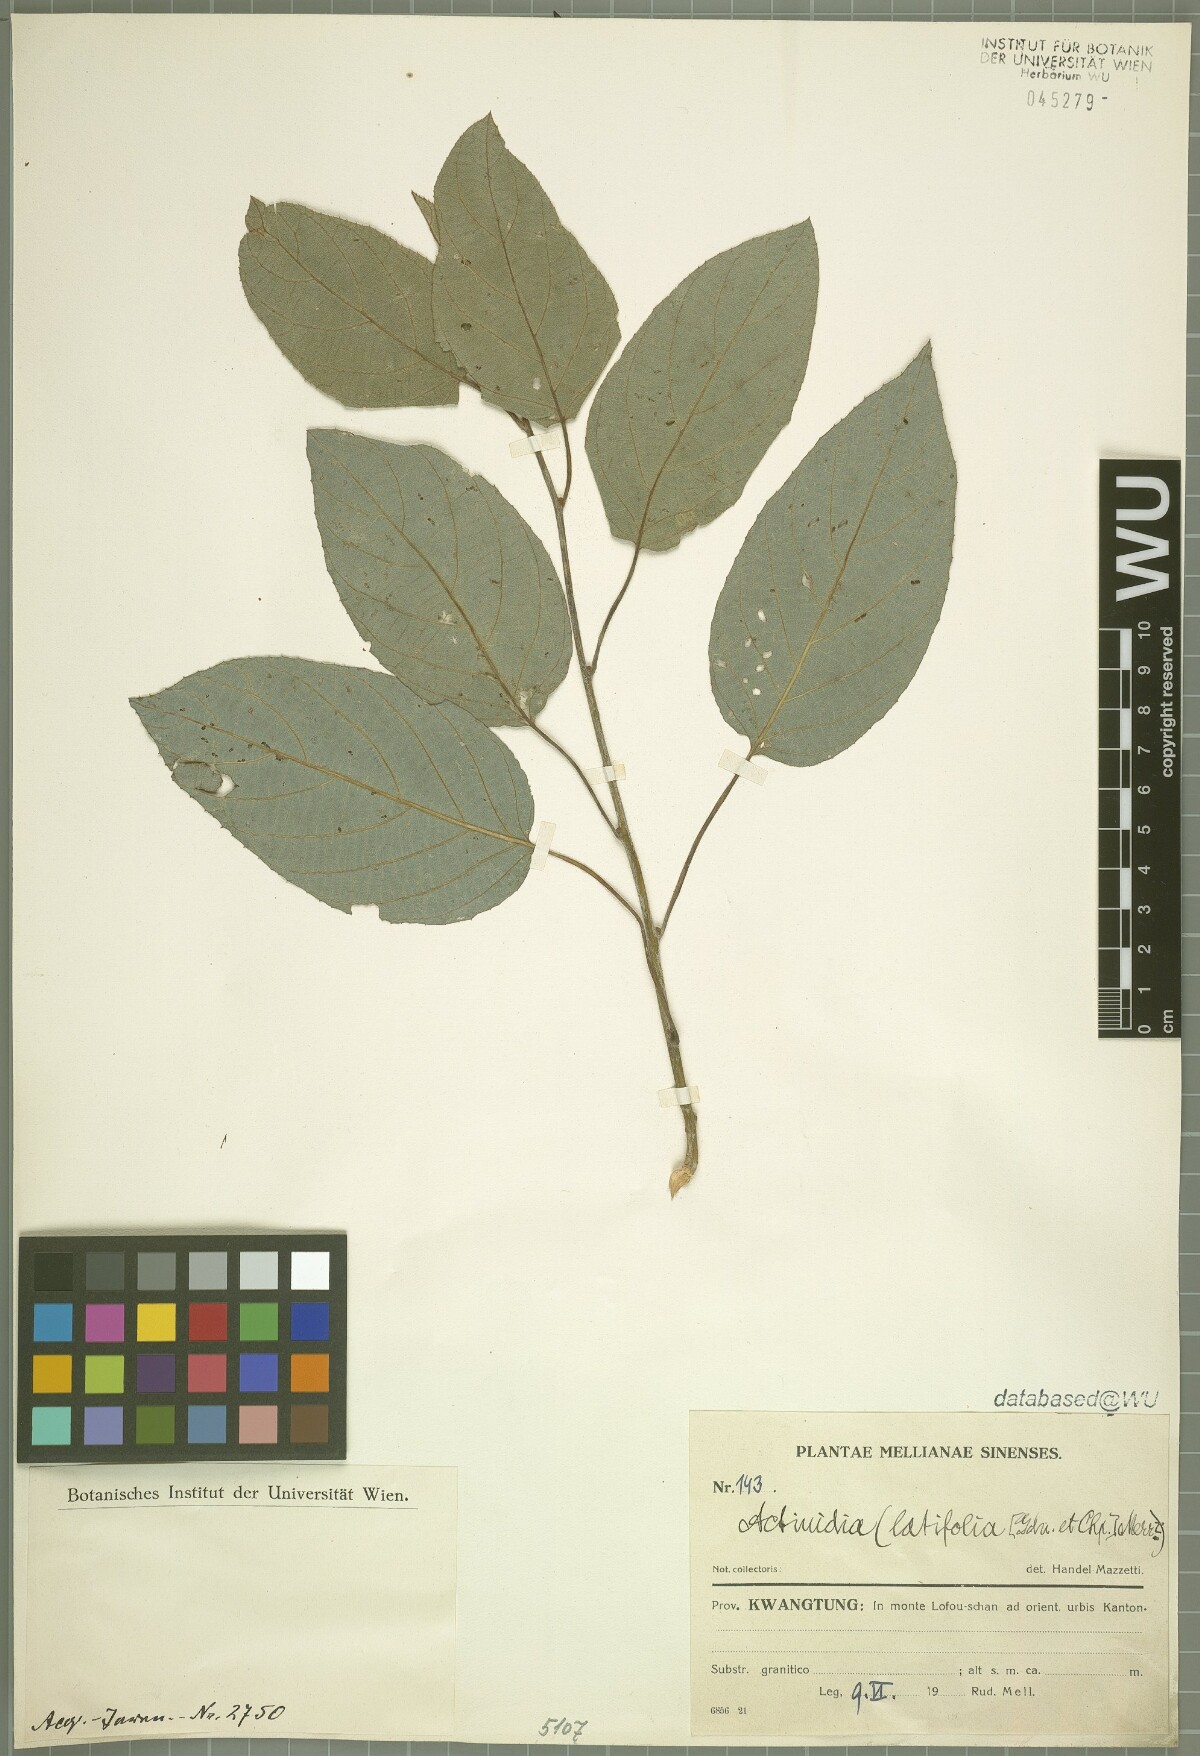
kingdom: Plantae
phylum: Tracheophyta
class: Magnoliopsida
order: Ericales
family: Actinidiaceae
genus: Actinidia
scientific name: Actinidia latifolia
